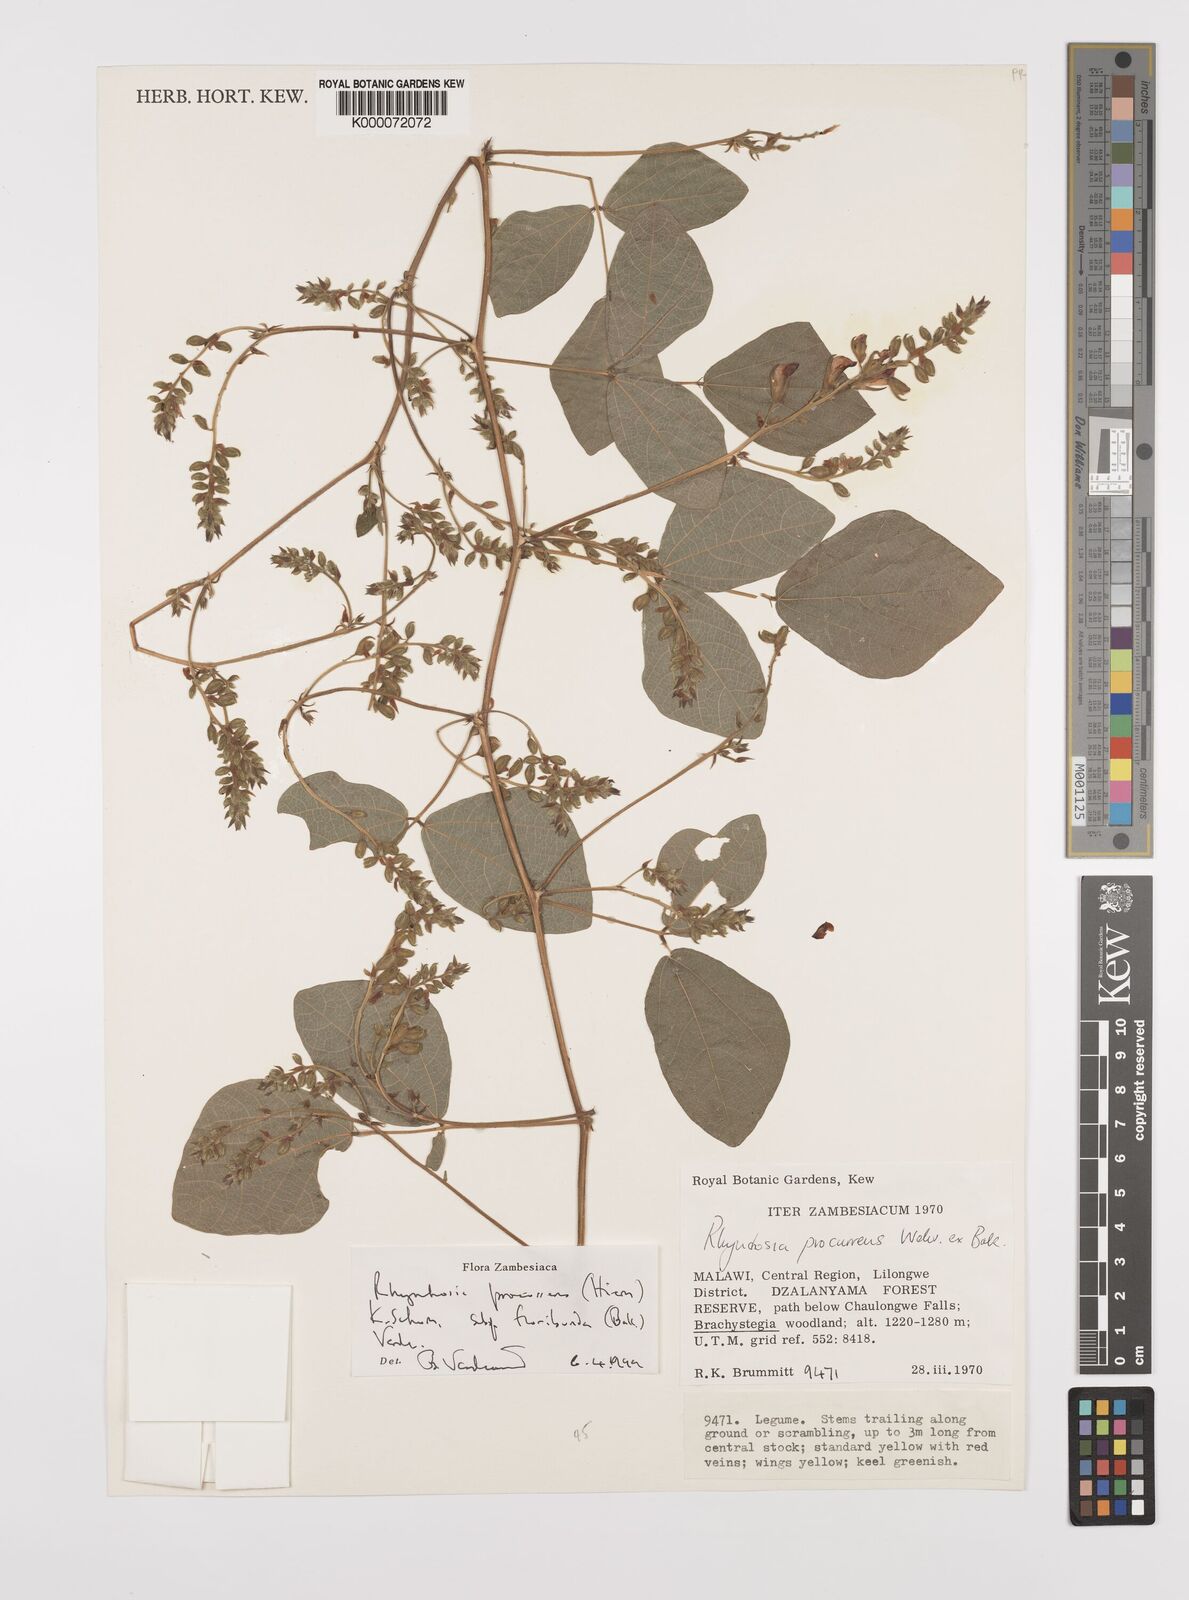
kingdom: Plantae
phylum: Tracheophyta
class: Magnoliopsida
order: Fabales
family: Fabaceae
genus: Rhynchosia
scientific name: Rhynchosia procurrens
